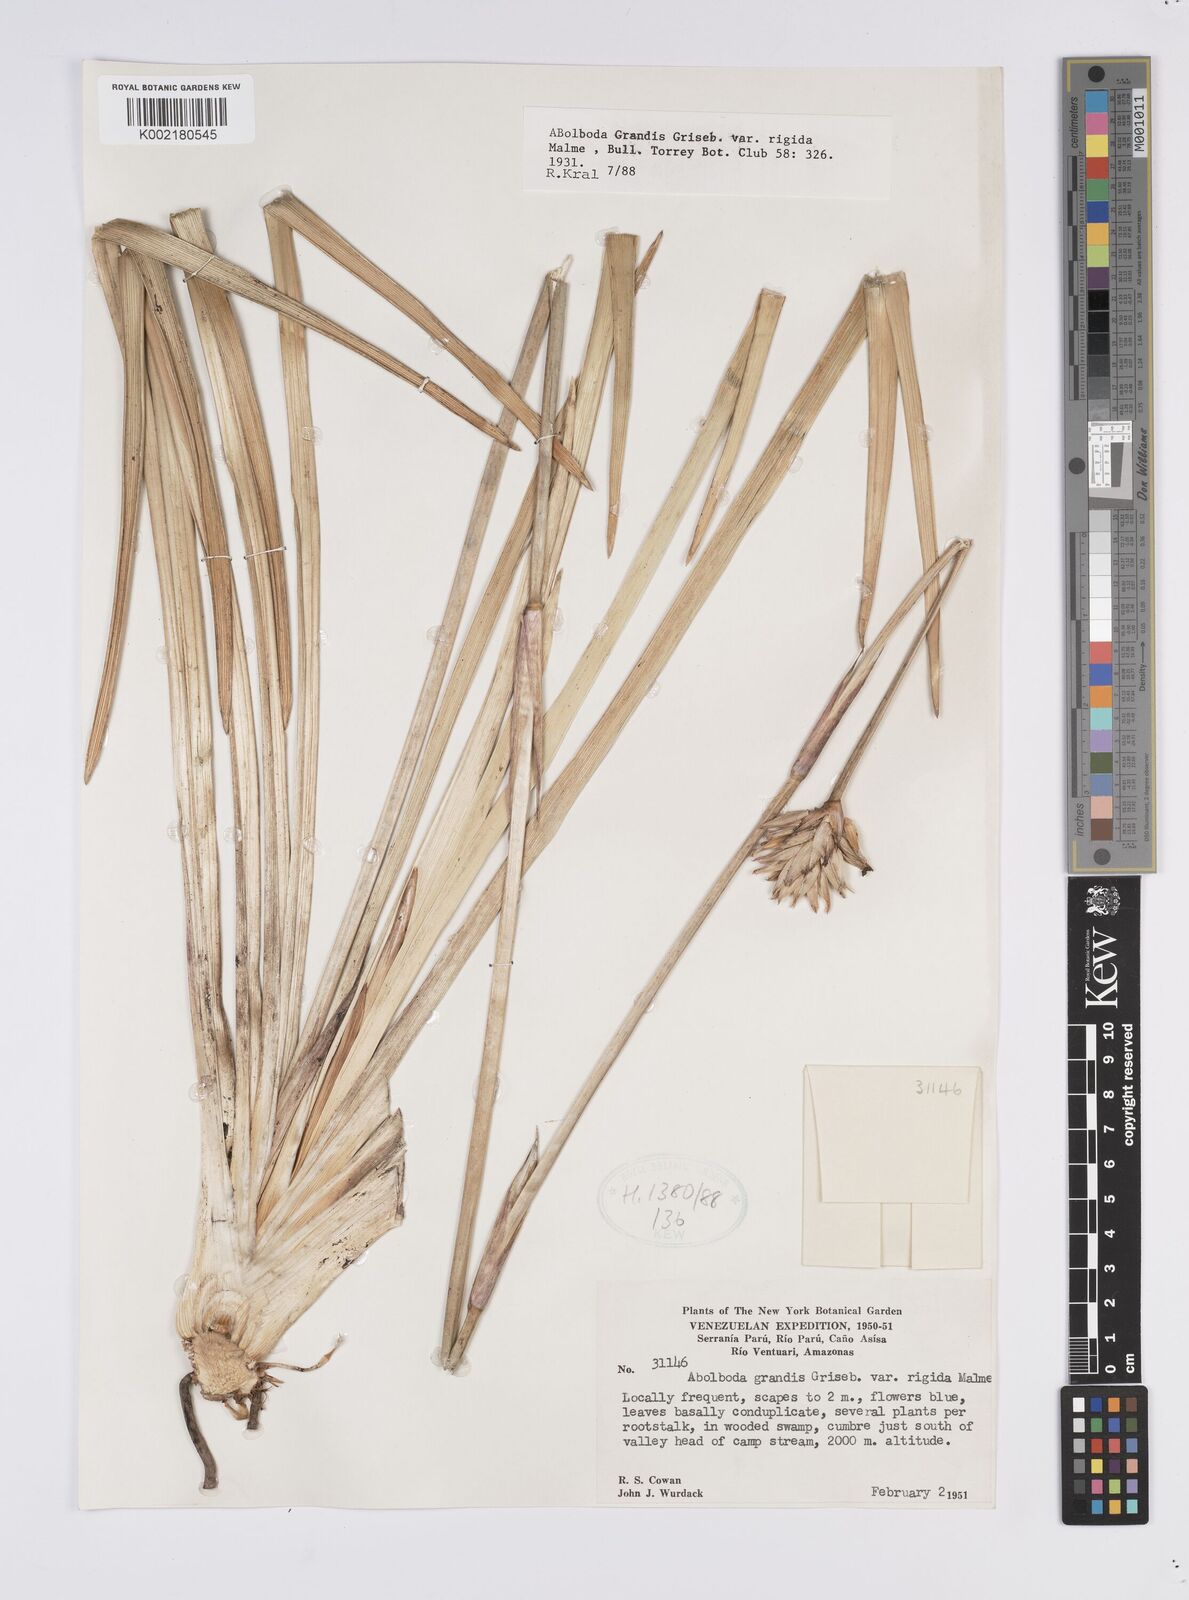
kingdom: Plantae
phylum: Tracheophyta
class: Liliopsida
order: Poales
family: Xyridaceae
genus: Abolboda
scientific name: Abolboda grandis
